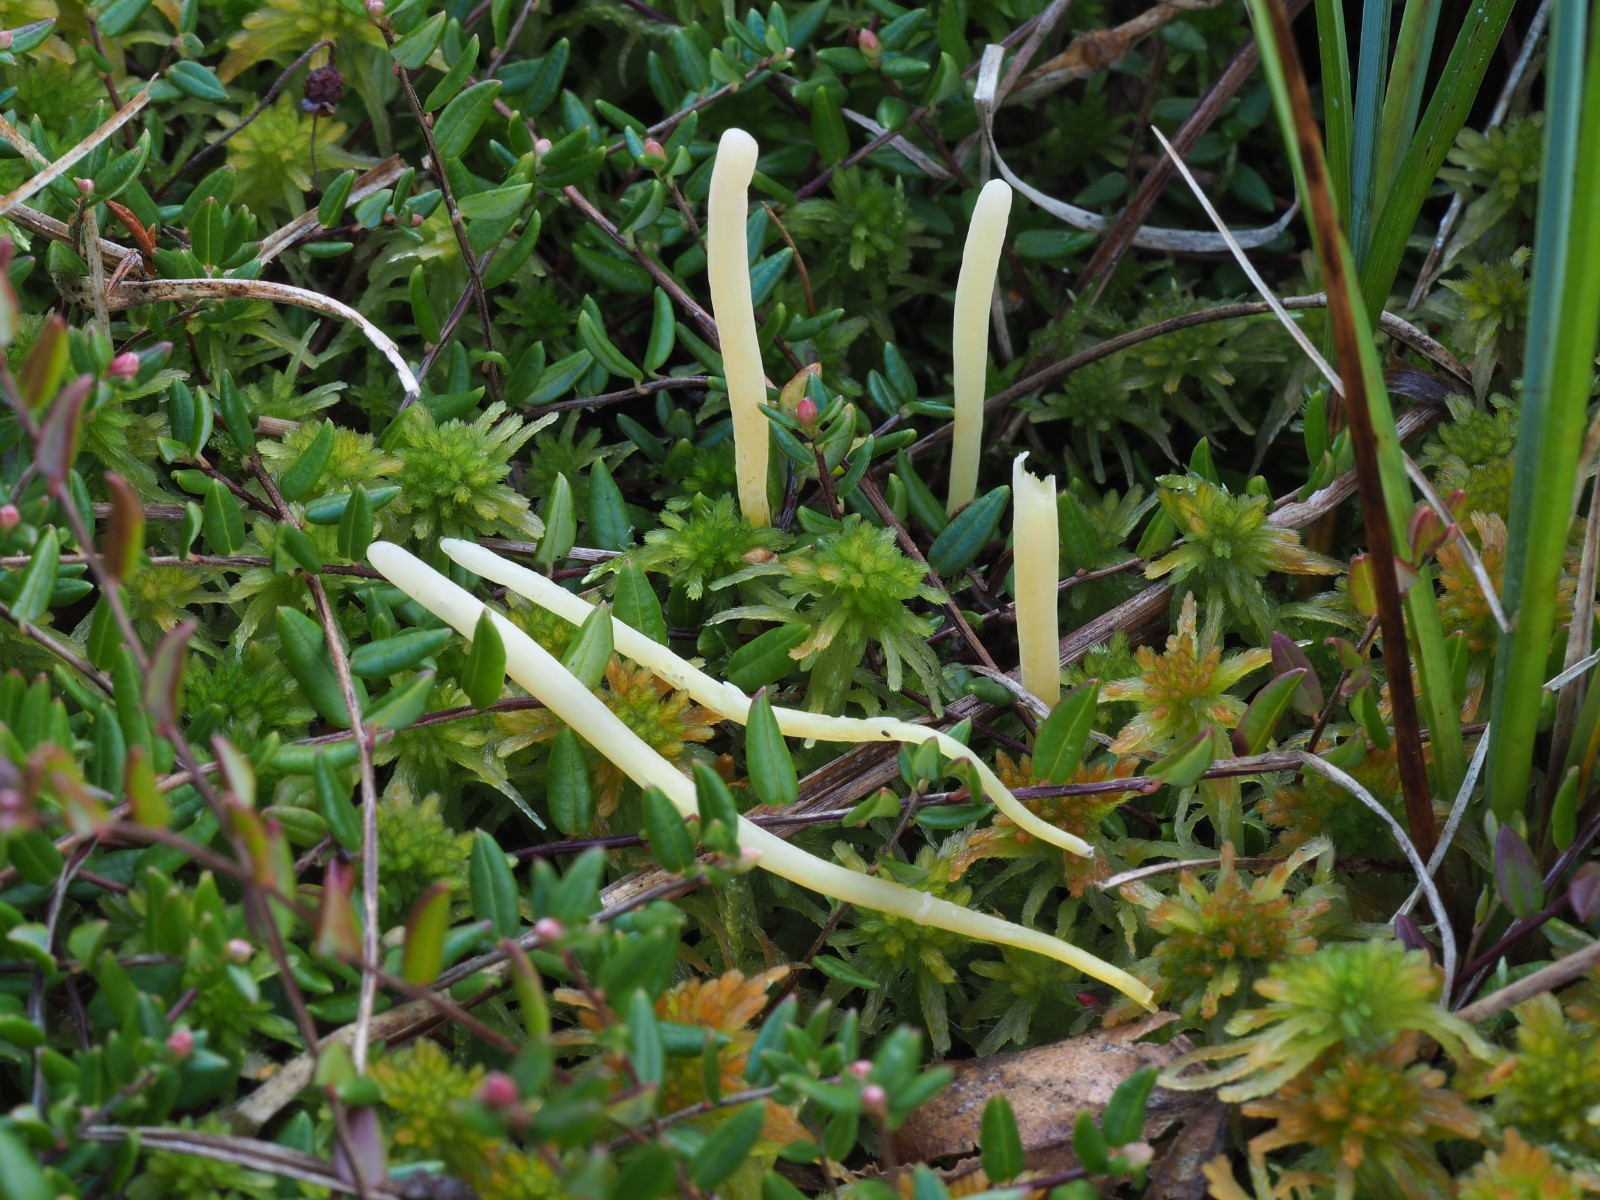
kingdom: Fungi
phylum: Basidiomycota
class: Agaricomycetes
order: Agaricales
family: Clavariaceae
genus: Clavaria
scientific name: Clavaria sphagnicola
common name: tørvemos-køllesvamp
